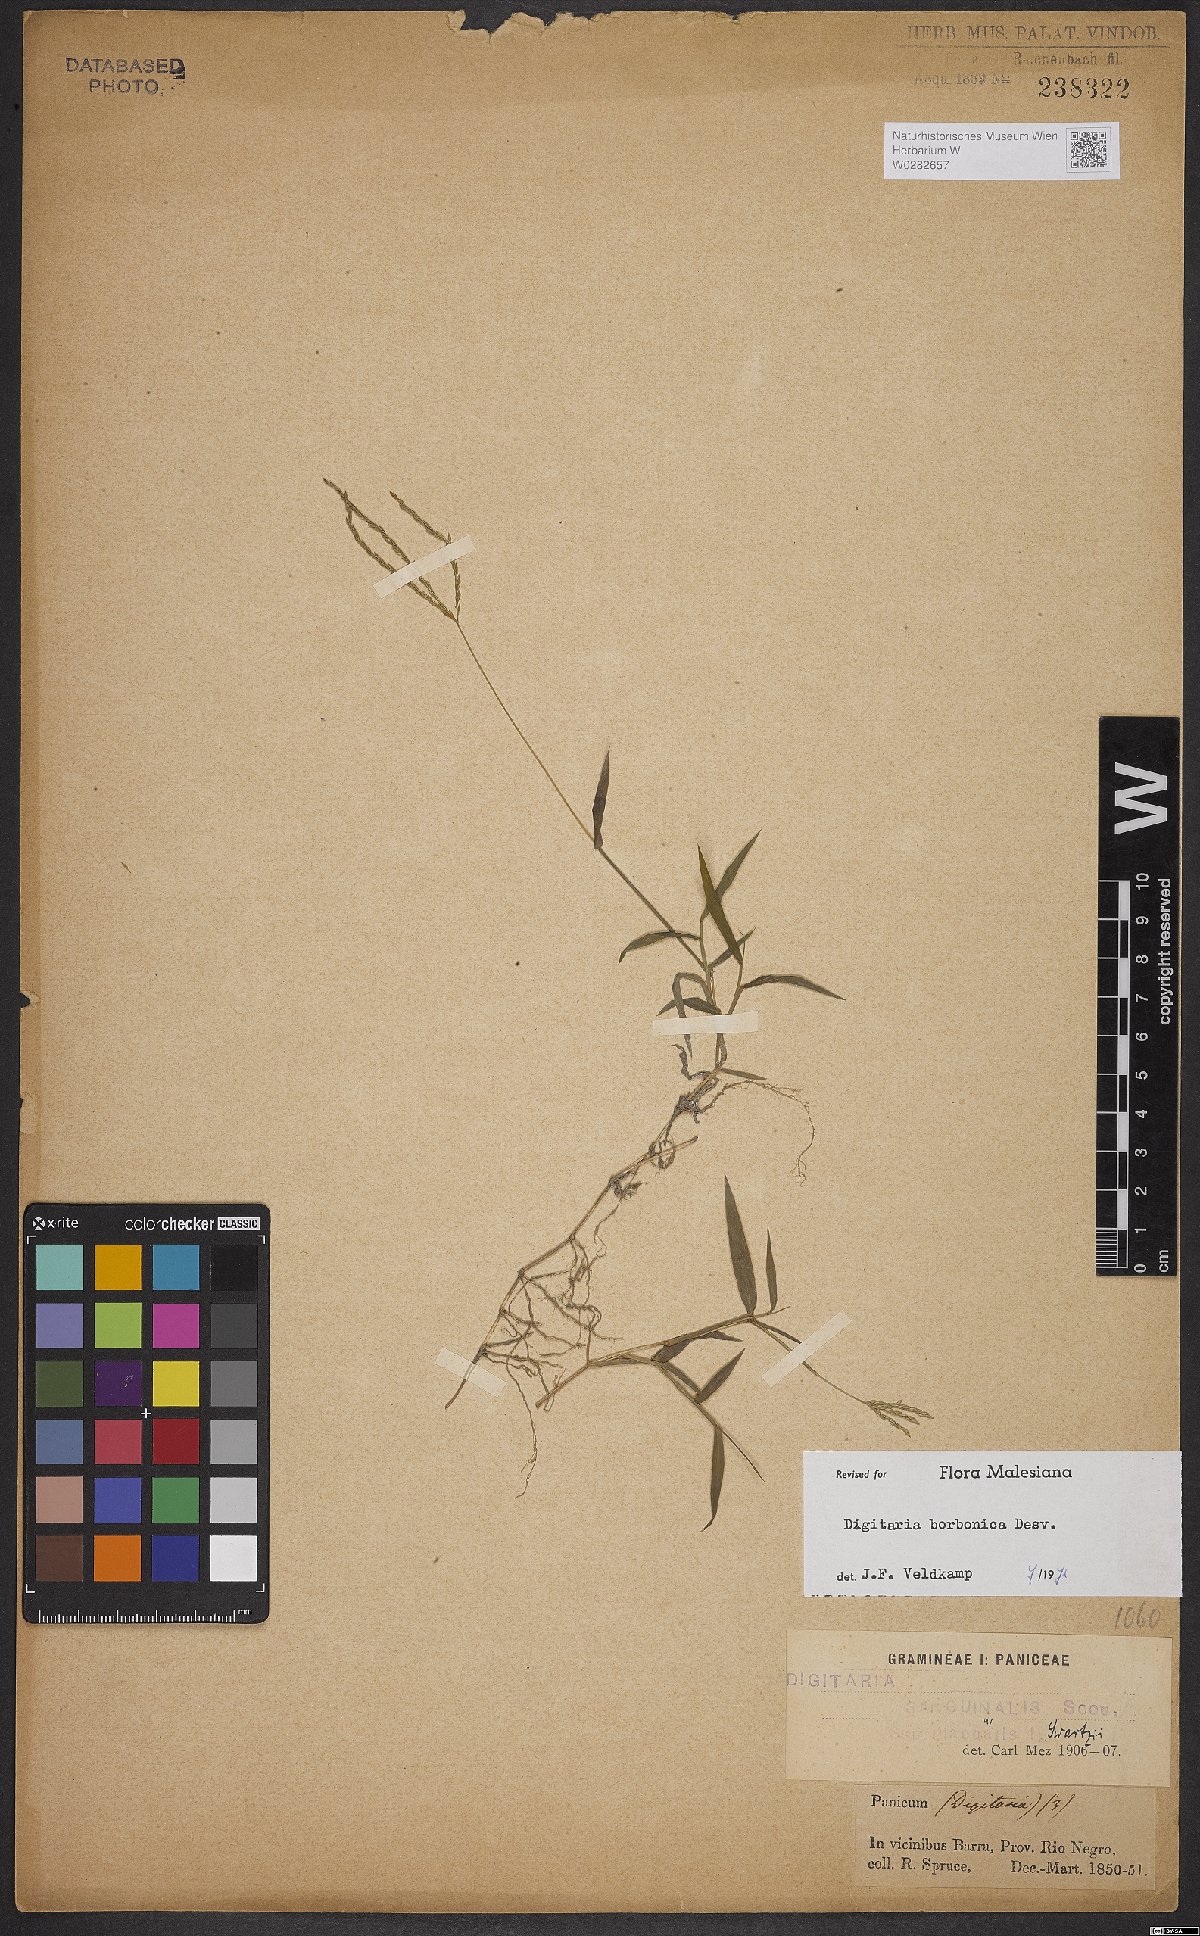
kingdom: Plantae
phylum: Tracheophyta
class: Liliopsida
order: Poales
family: Poaceae
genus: Digitaria
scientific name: Digitaria nuda
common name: Naked crabgrass
